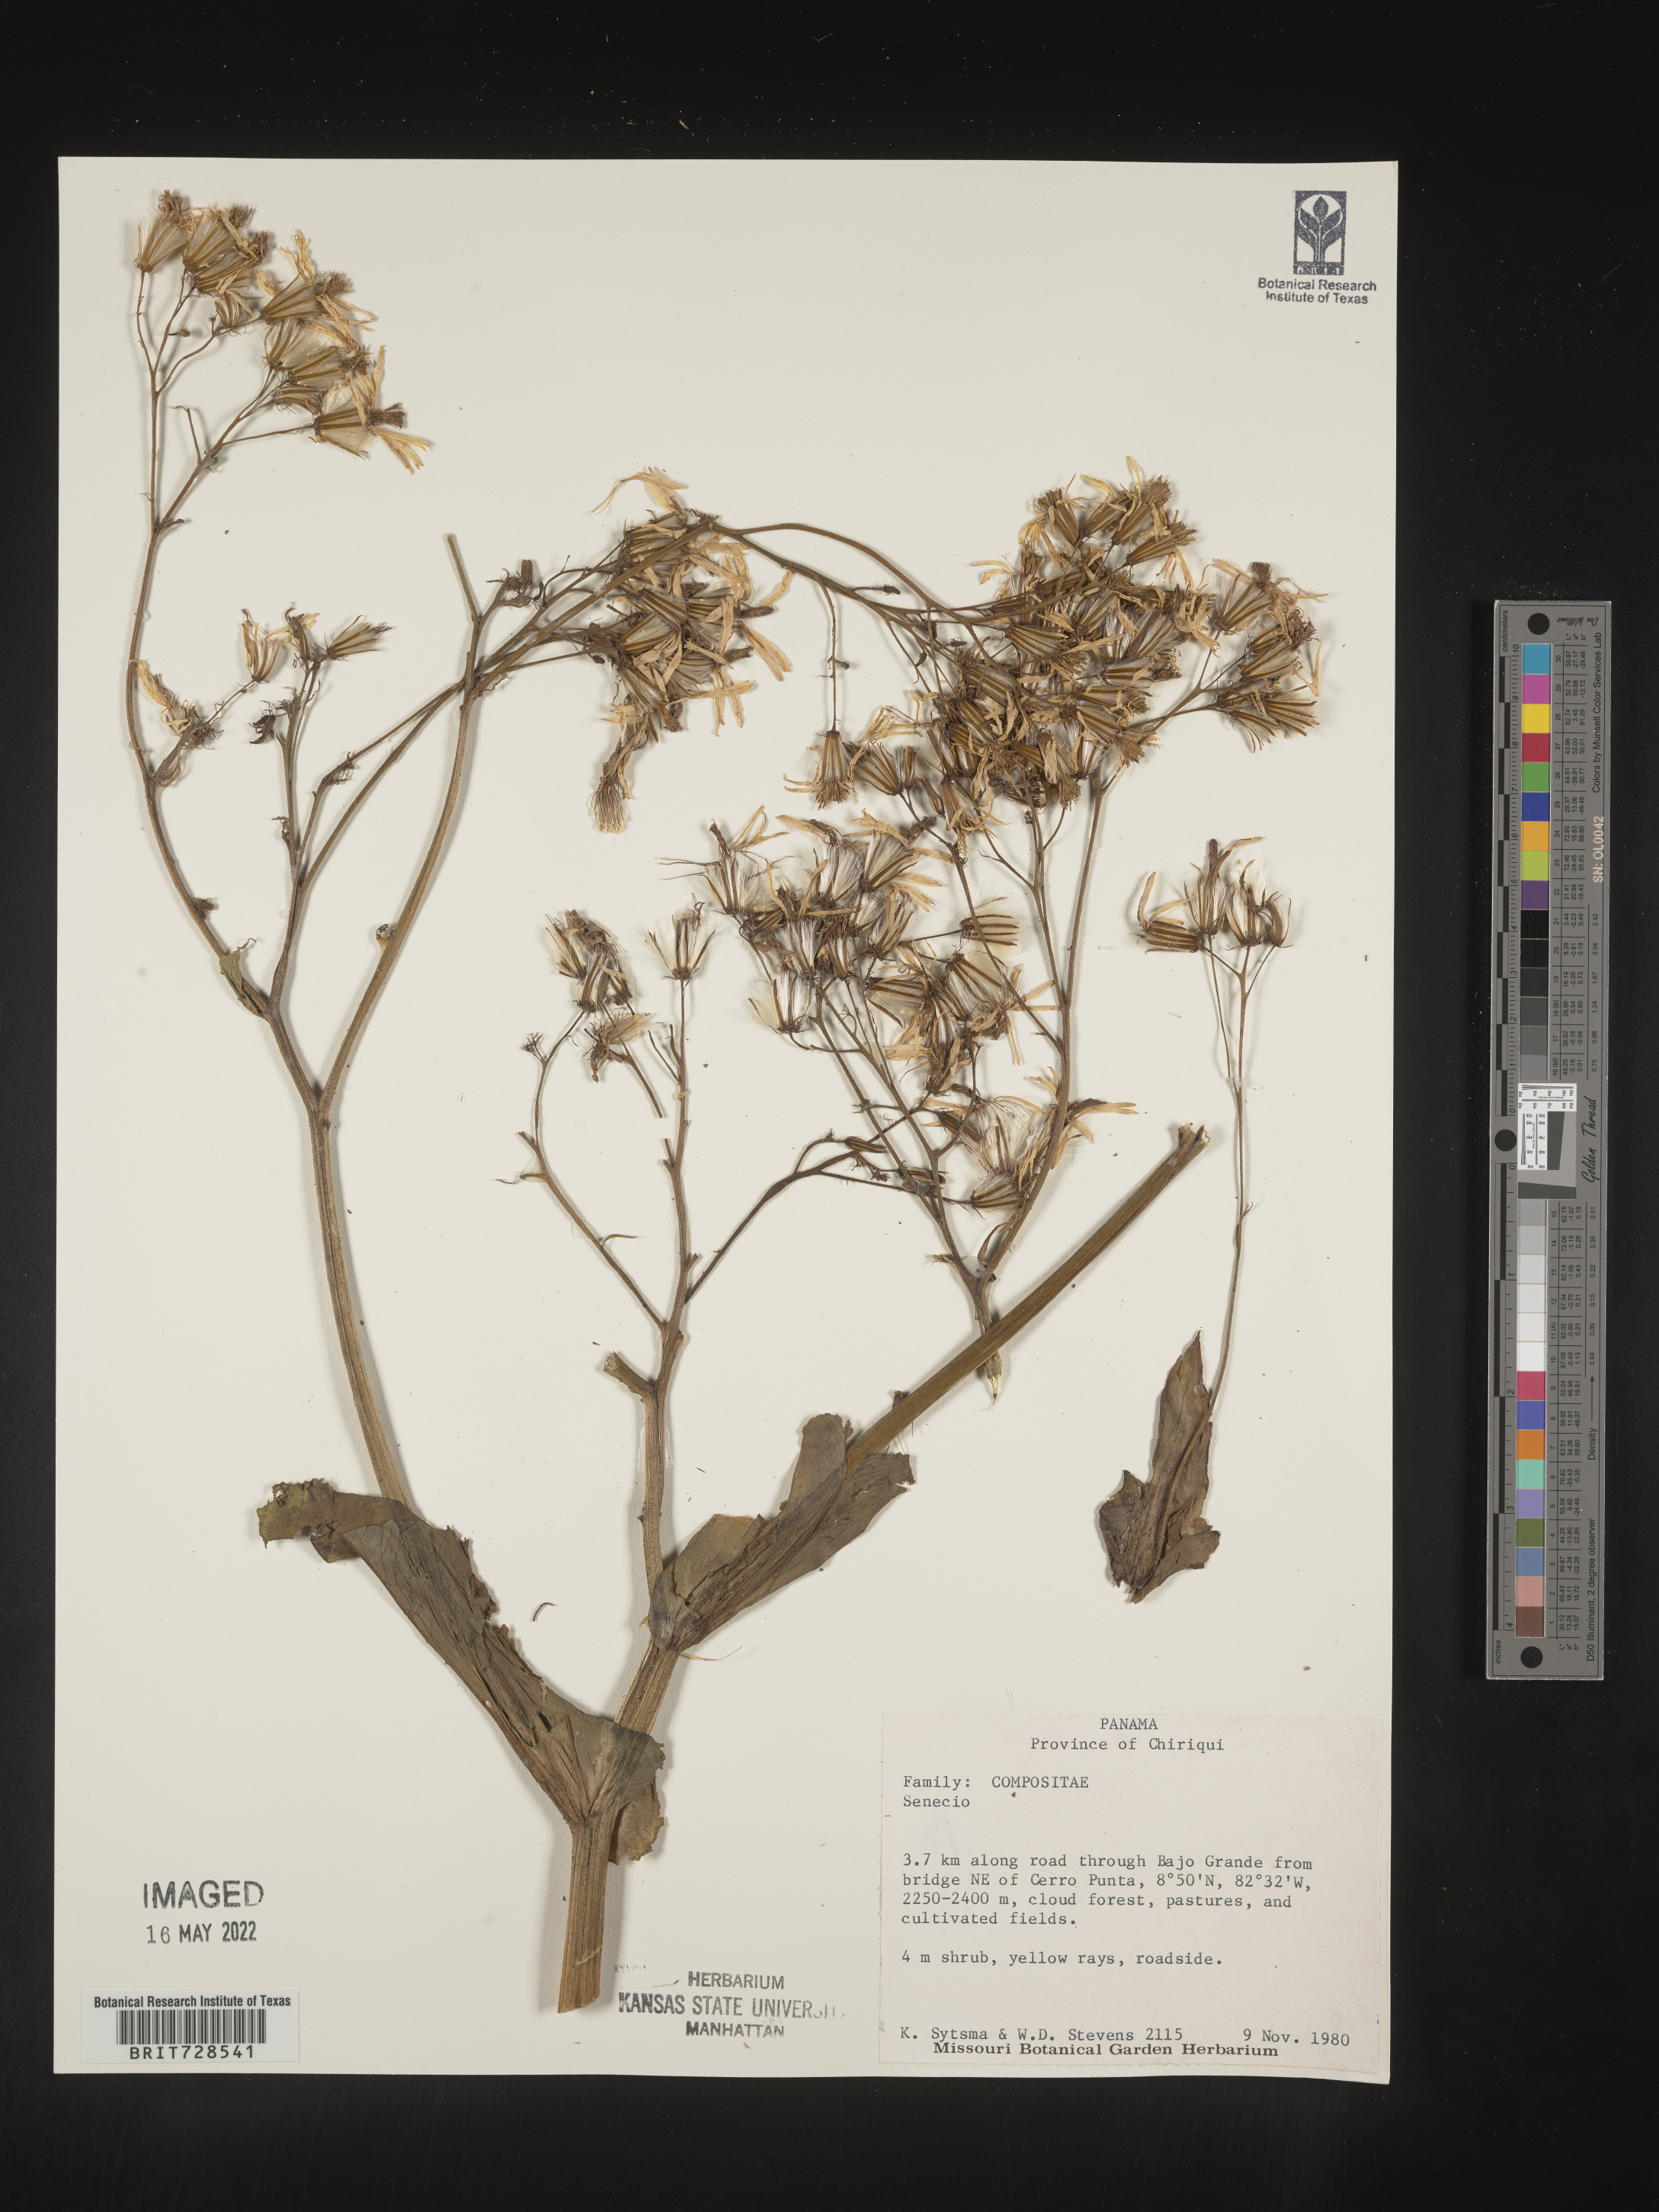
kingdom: Plantae
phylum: Tracheophyta
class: Magnoliopsida
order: Asterales
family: Asteraceae
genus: Jessea
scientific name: Jessea
